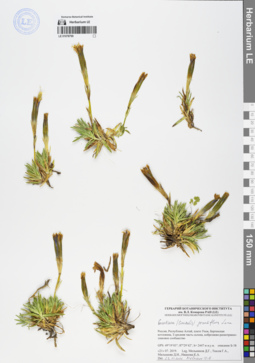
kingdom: Plantae
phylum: Tracheophyta
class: Magnoliopsida
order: Gentianales
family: Gentianaceae
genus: Gentiana
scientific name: Gentiana grandiflora
